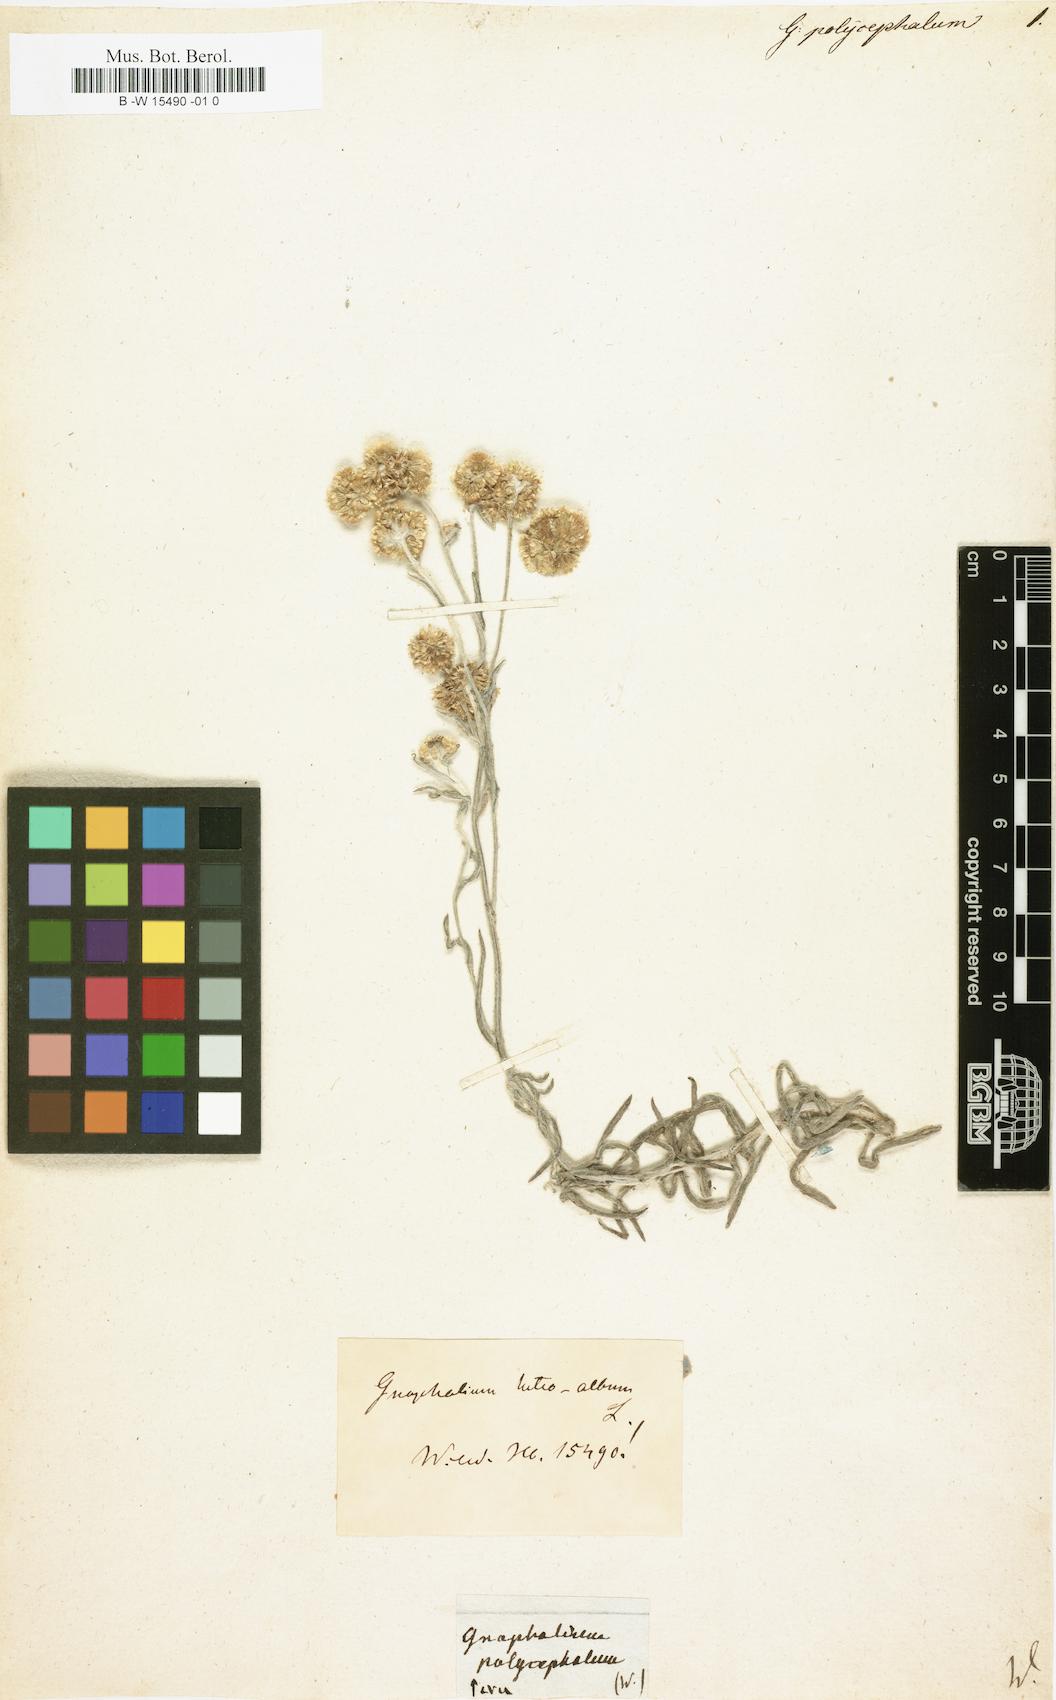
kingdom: Plantae
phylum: Tracheophyta
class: Magnoliopsida
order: Asterales
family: Asteraceae
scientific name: Asteraceae
